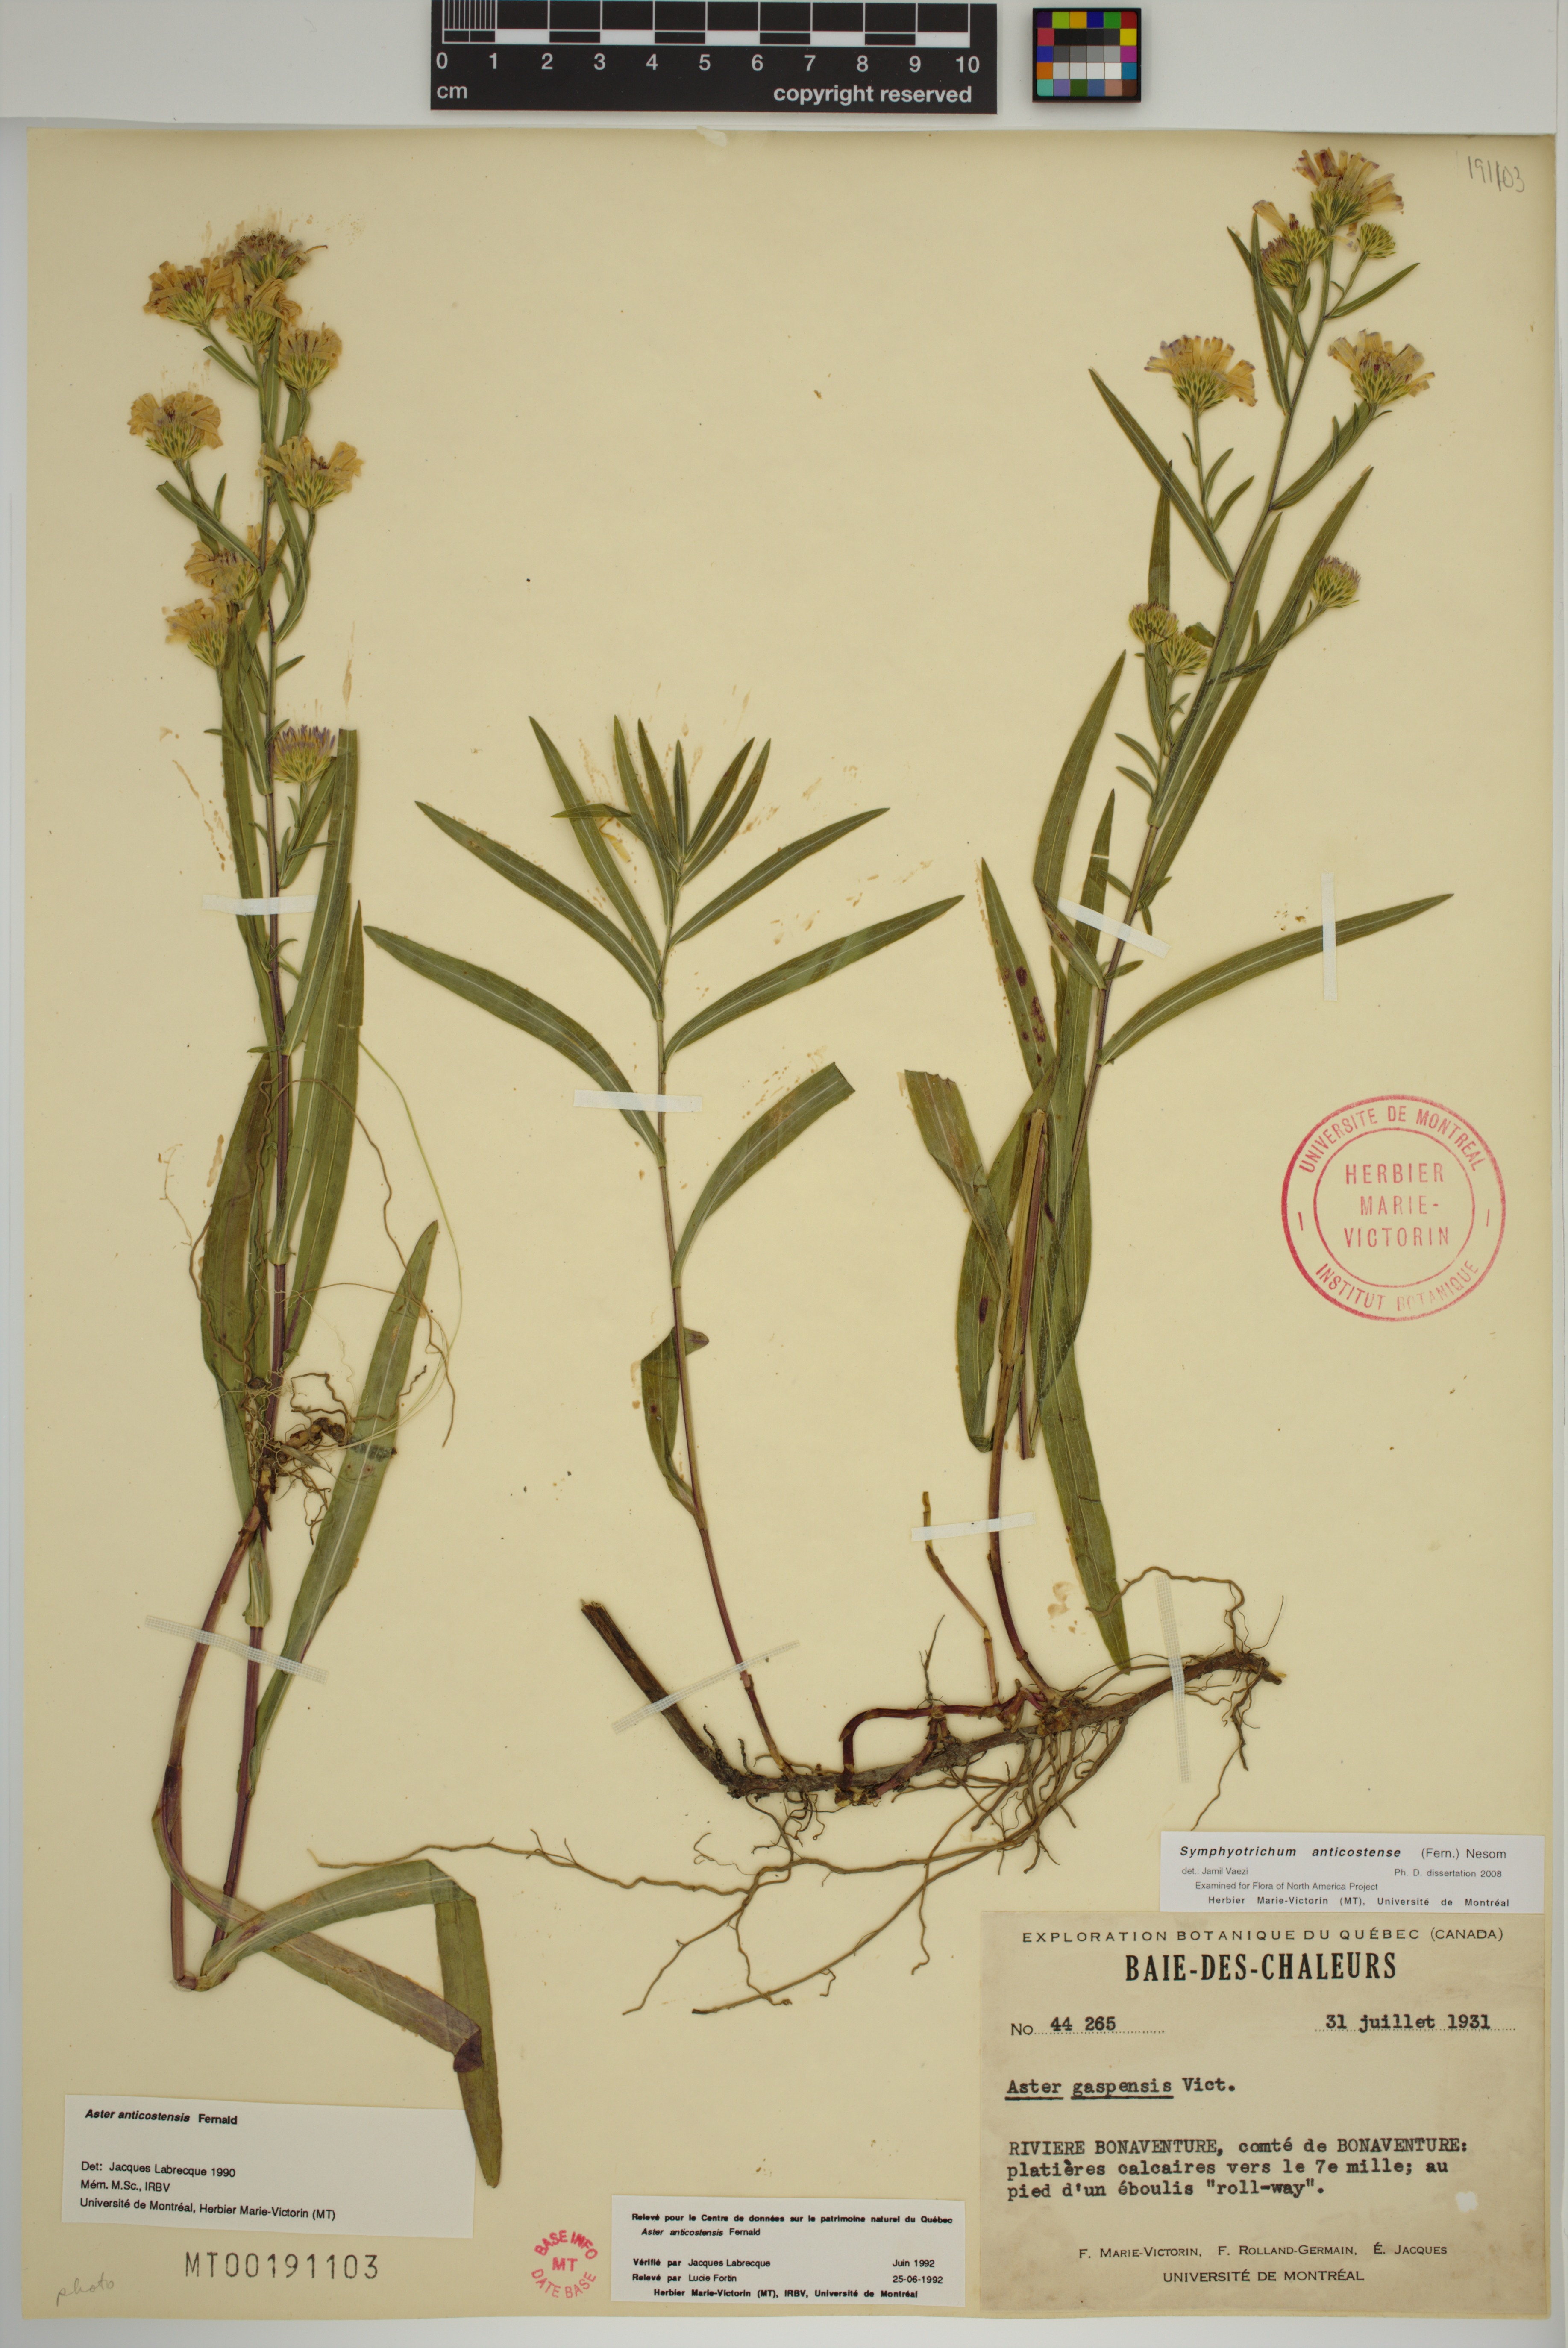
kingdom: Plantae
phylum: Tracheophyta
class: Magnoliopsida
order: Asterales
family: Asteraceae
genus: Symphyotrichum
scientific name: Symphyotrichum anticostense
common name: Anticosti island aster
